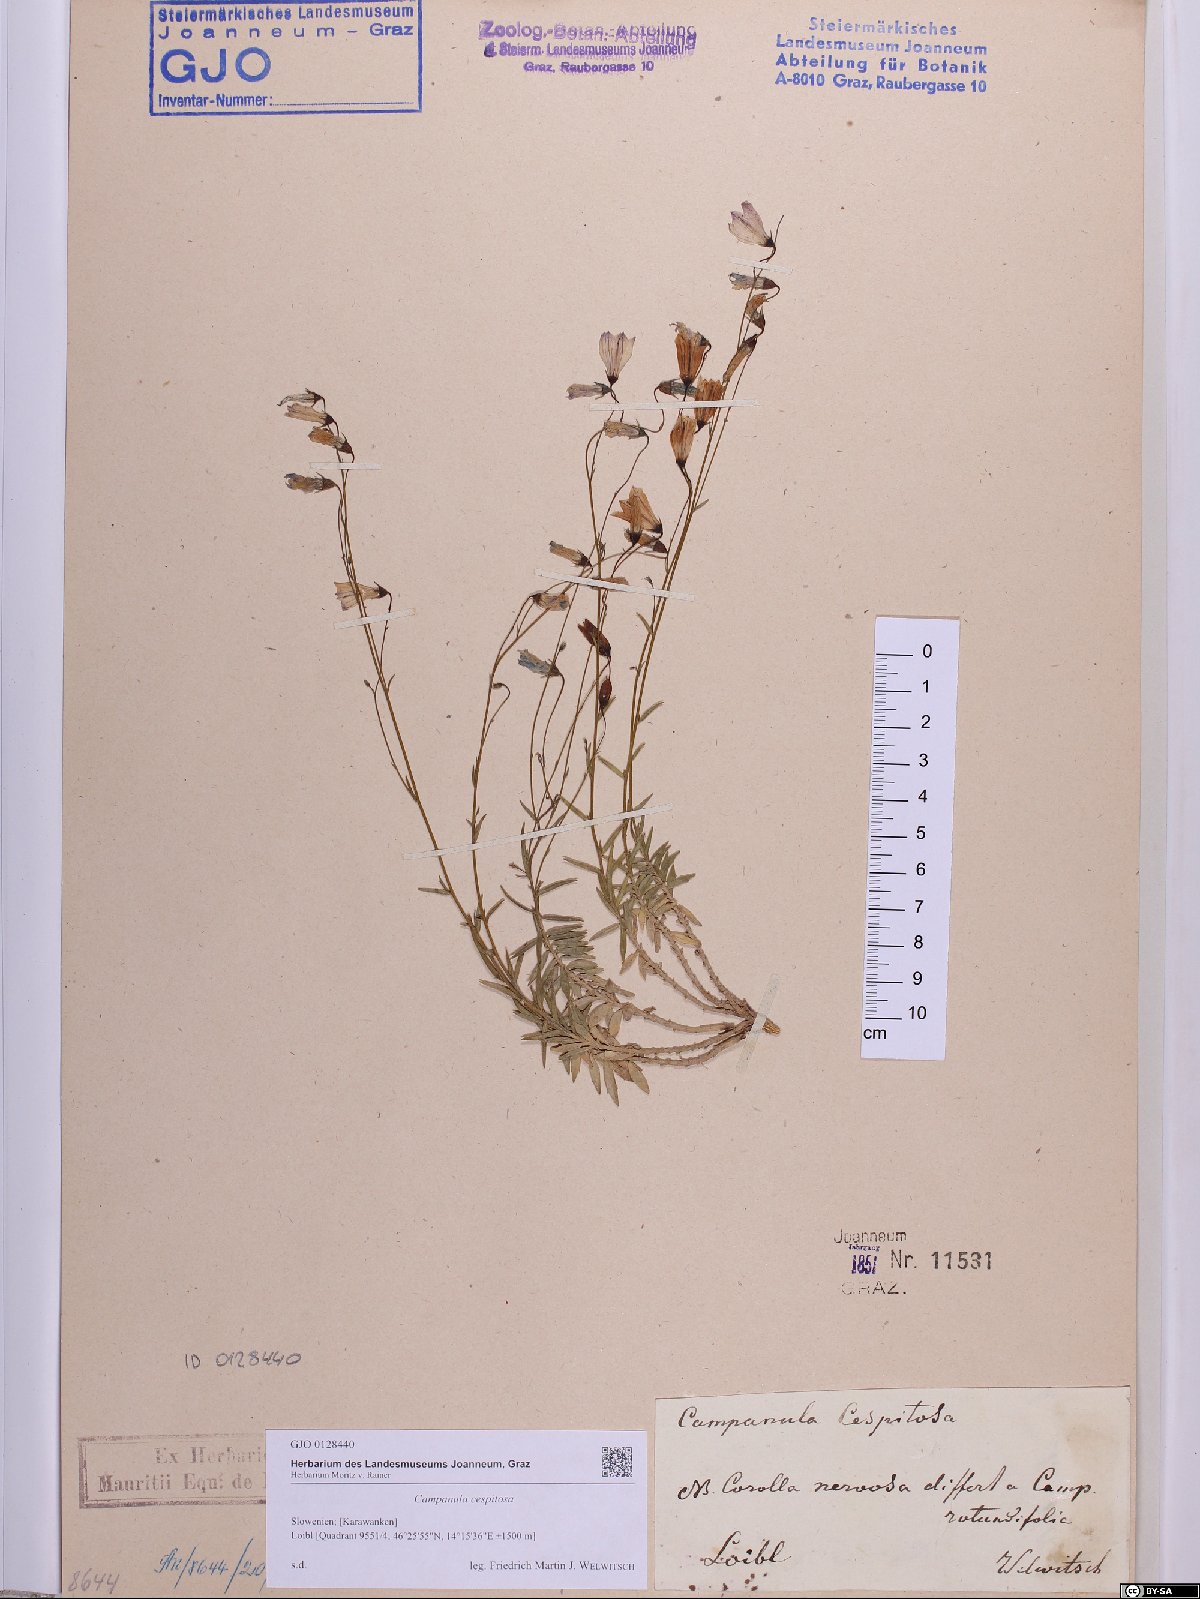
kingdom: Plantae
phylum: Tracheophyta
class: Magnoliopsida
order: Asterales
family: Campanulaceae
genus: Campanula
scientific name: Campanula cespitosa
